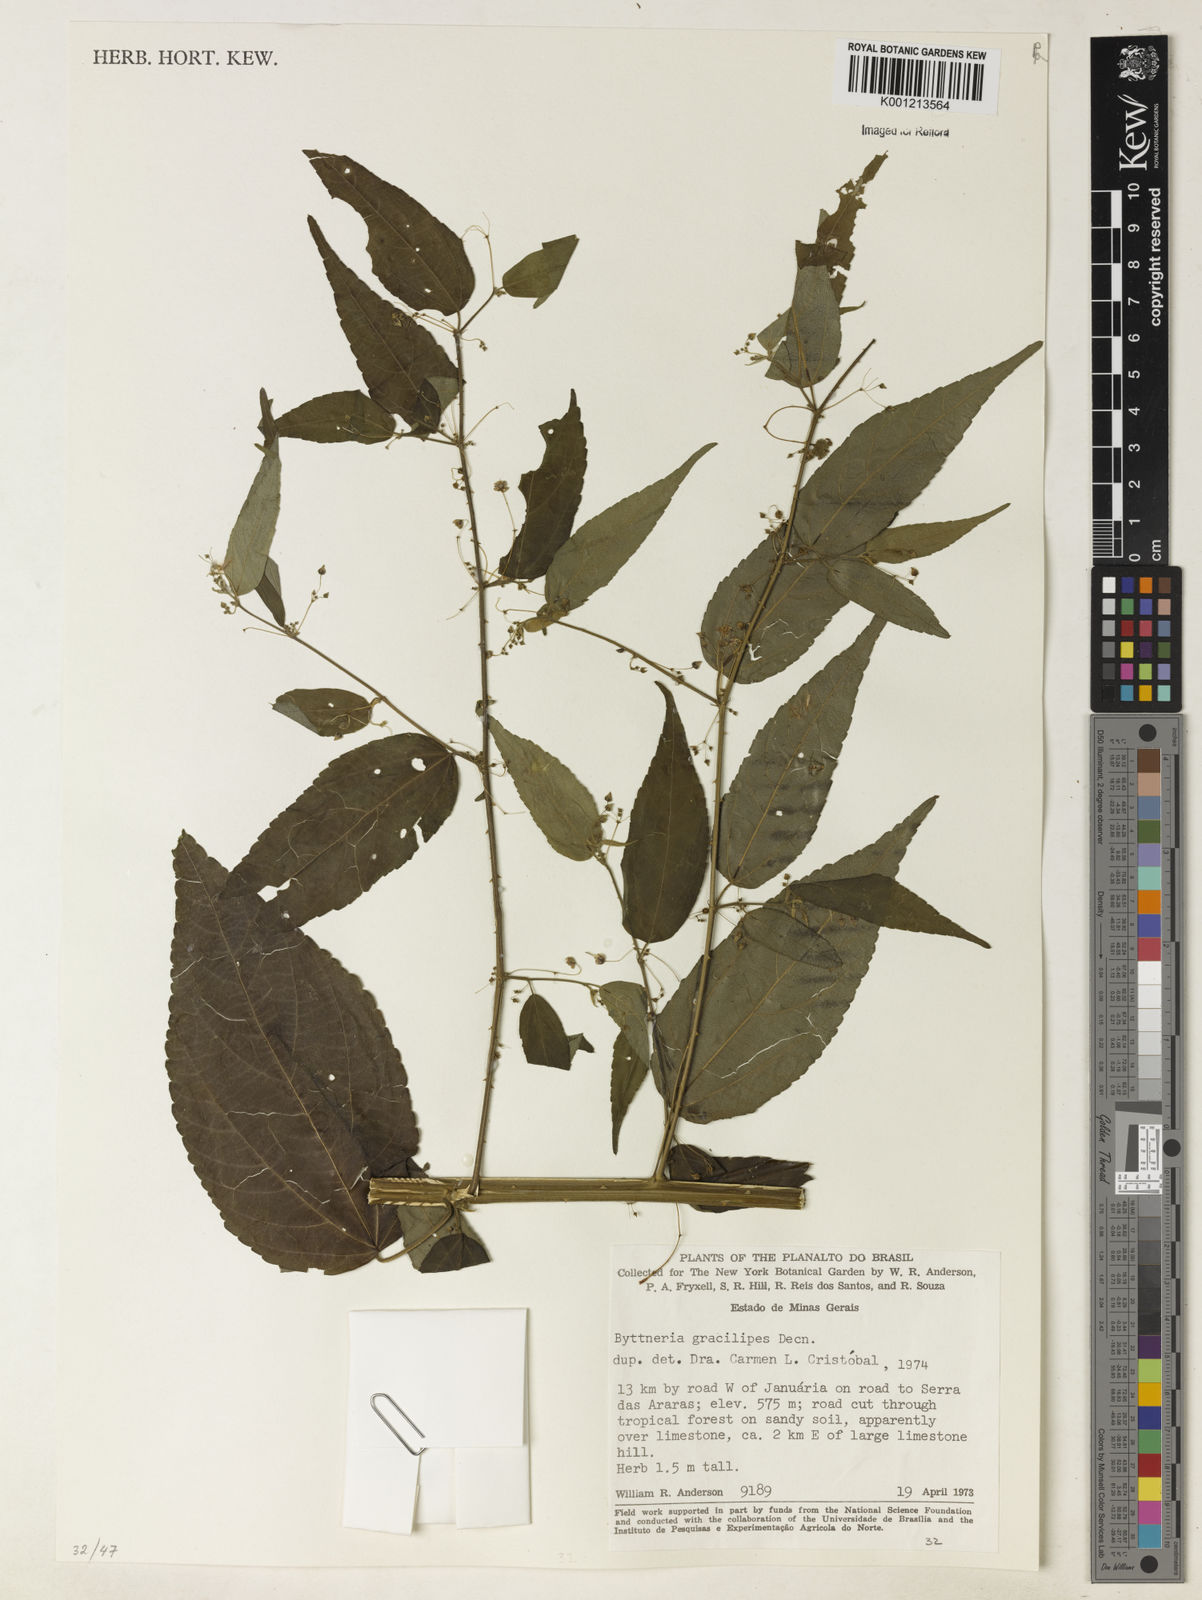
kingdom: Plantae
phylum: Tracheophyta
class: Magnoliopsida
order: Malvales
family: Malvaceae
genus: Byttneria
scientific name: Byttneria gracilipes
